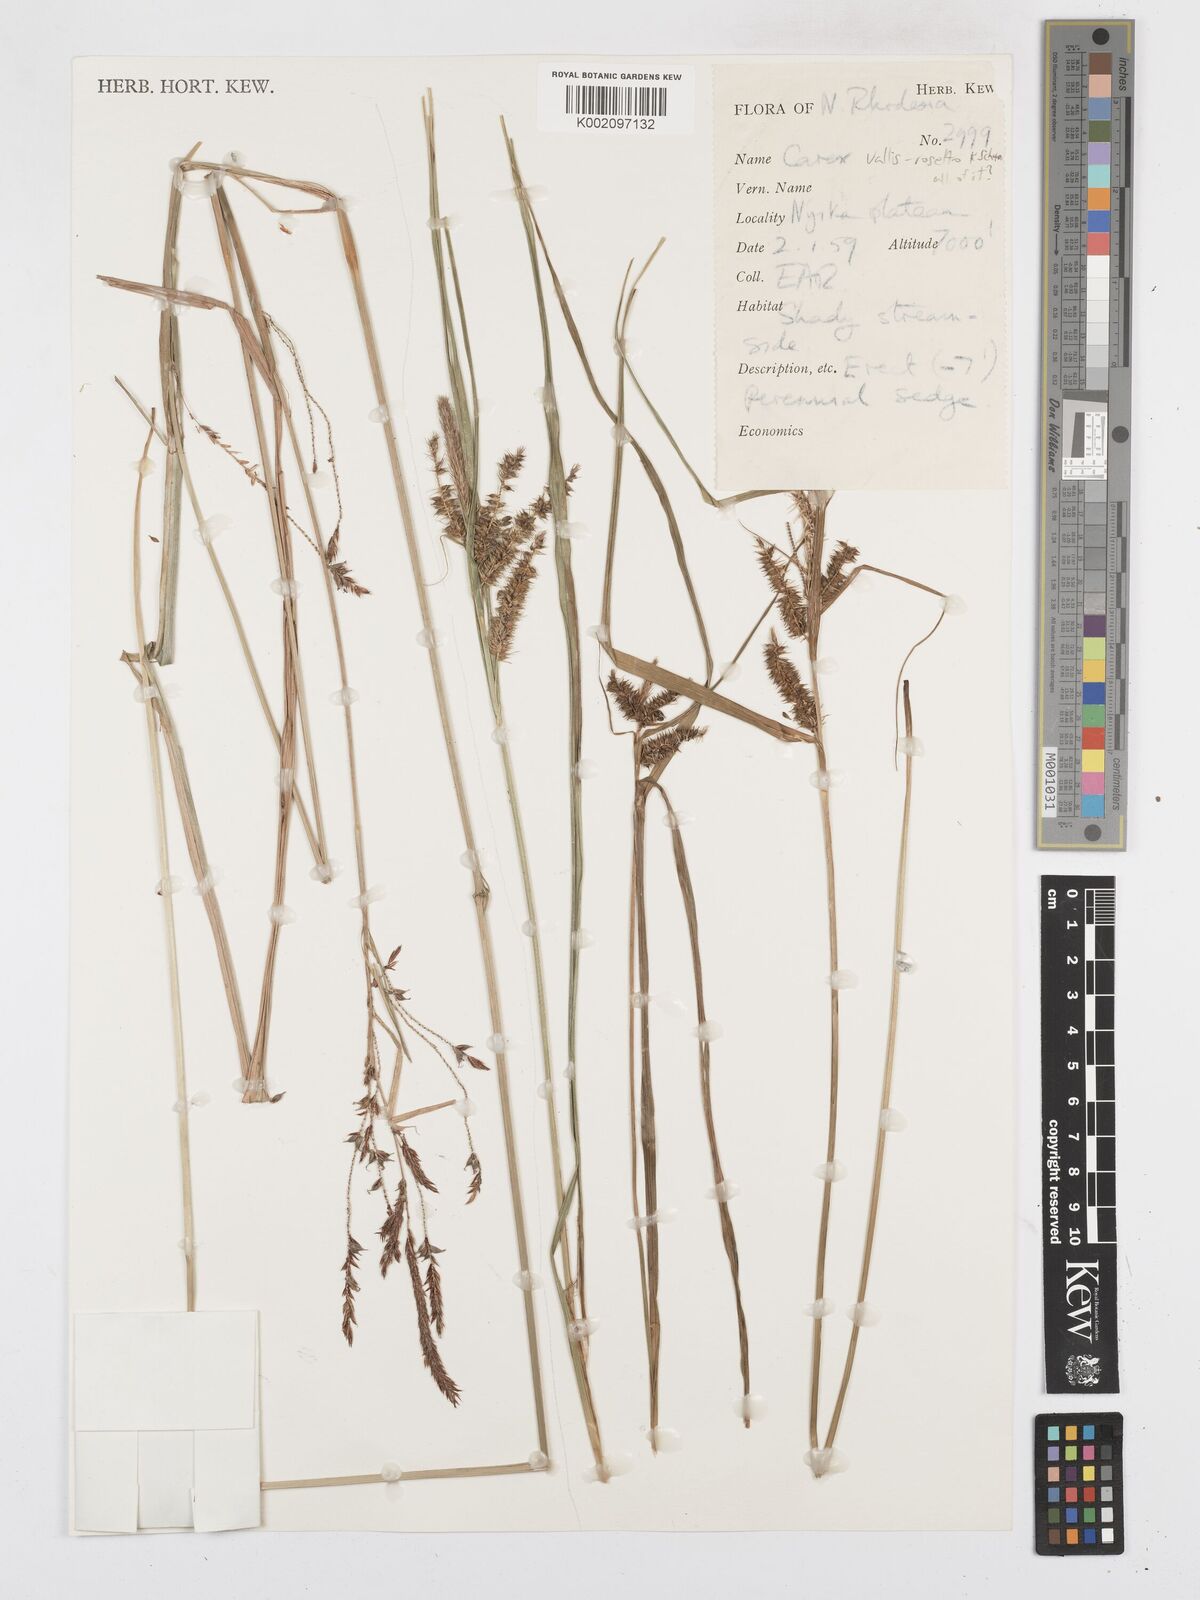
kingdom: Plantae
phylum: Tracheophyta
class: Liliopsida
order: Poales
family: Cyperaceae
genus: Carex
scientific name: Carex vallis-rosetto
